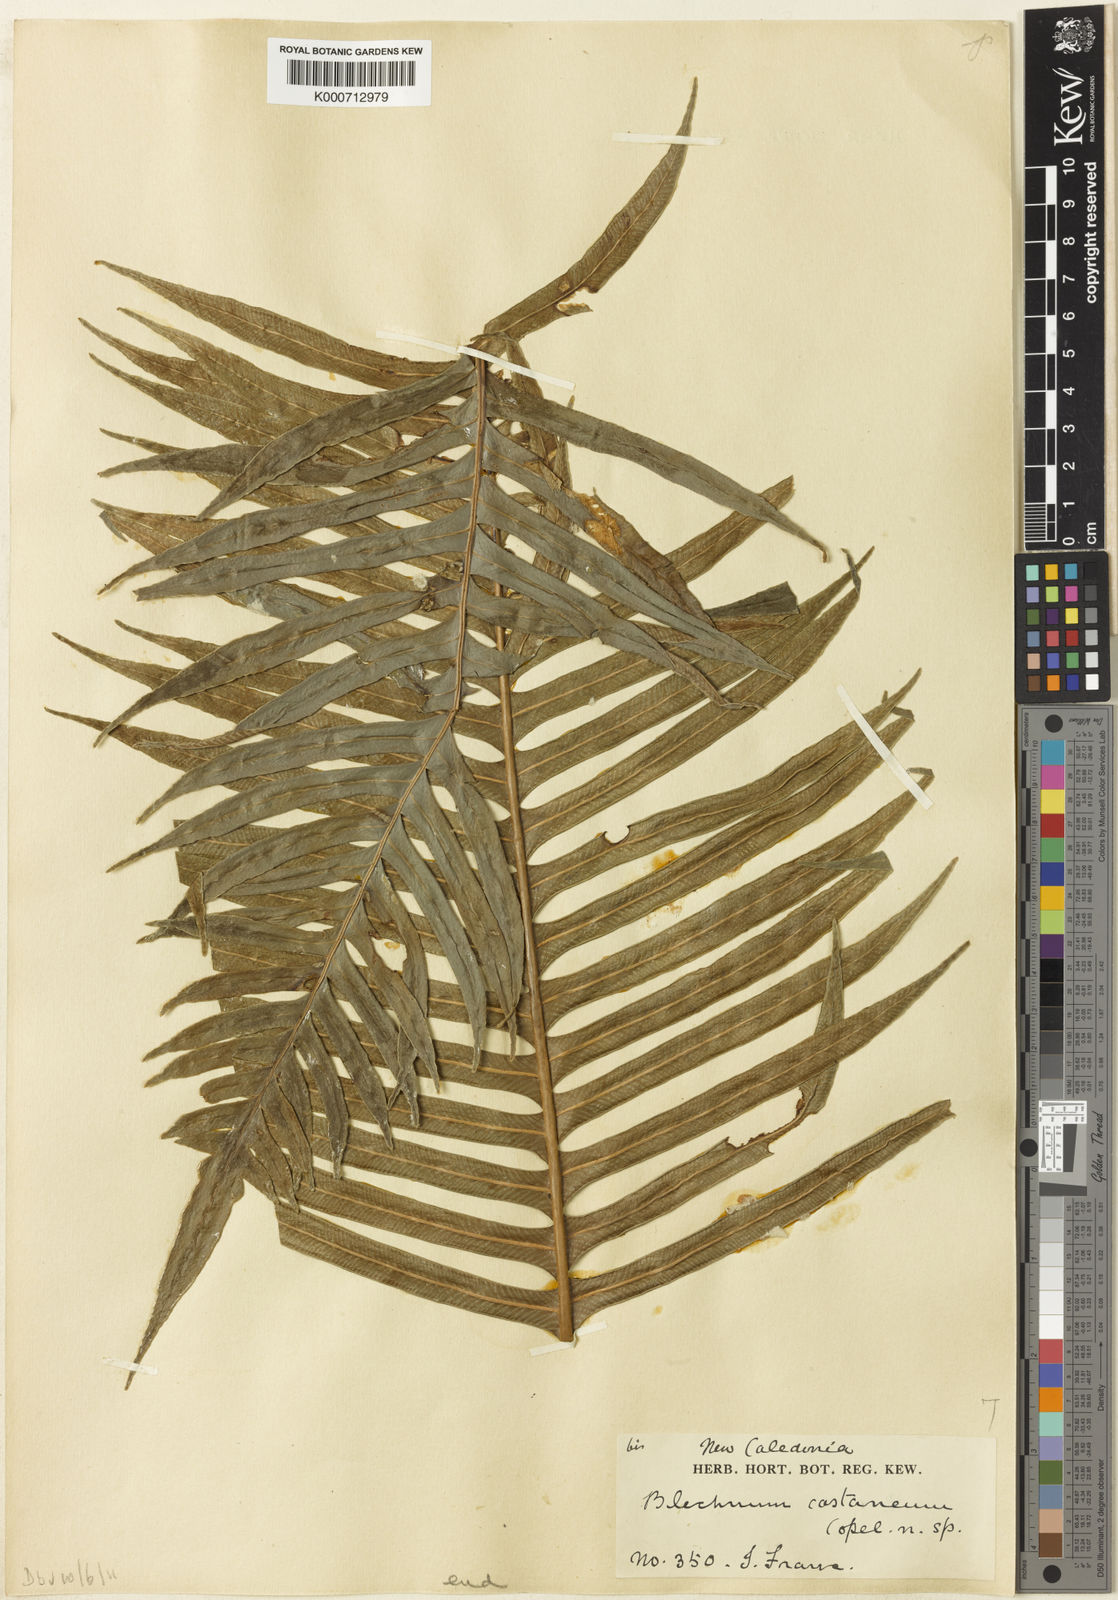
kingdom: Plantae
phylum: Tracheophyta
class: Polypodiopsida
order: Polypodiales
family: Blechnaceae
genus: Parablechnum
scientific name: Parablechnum chauliodontum
